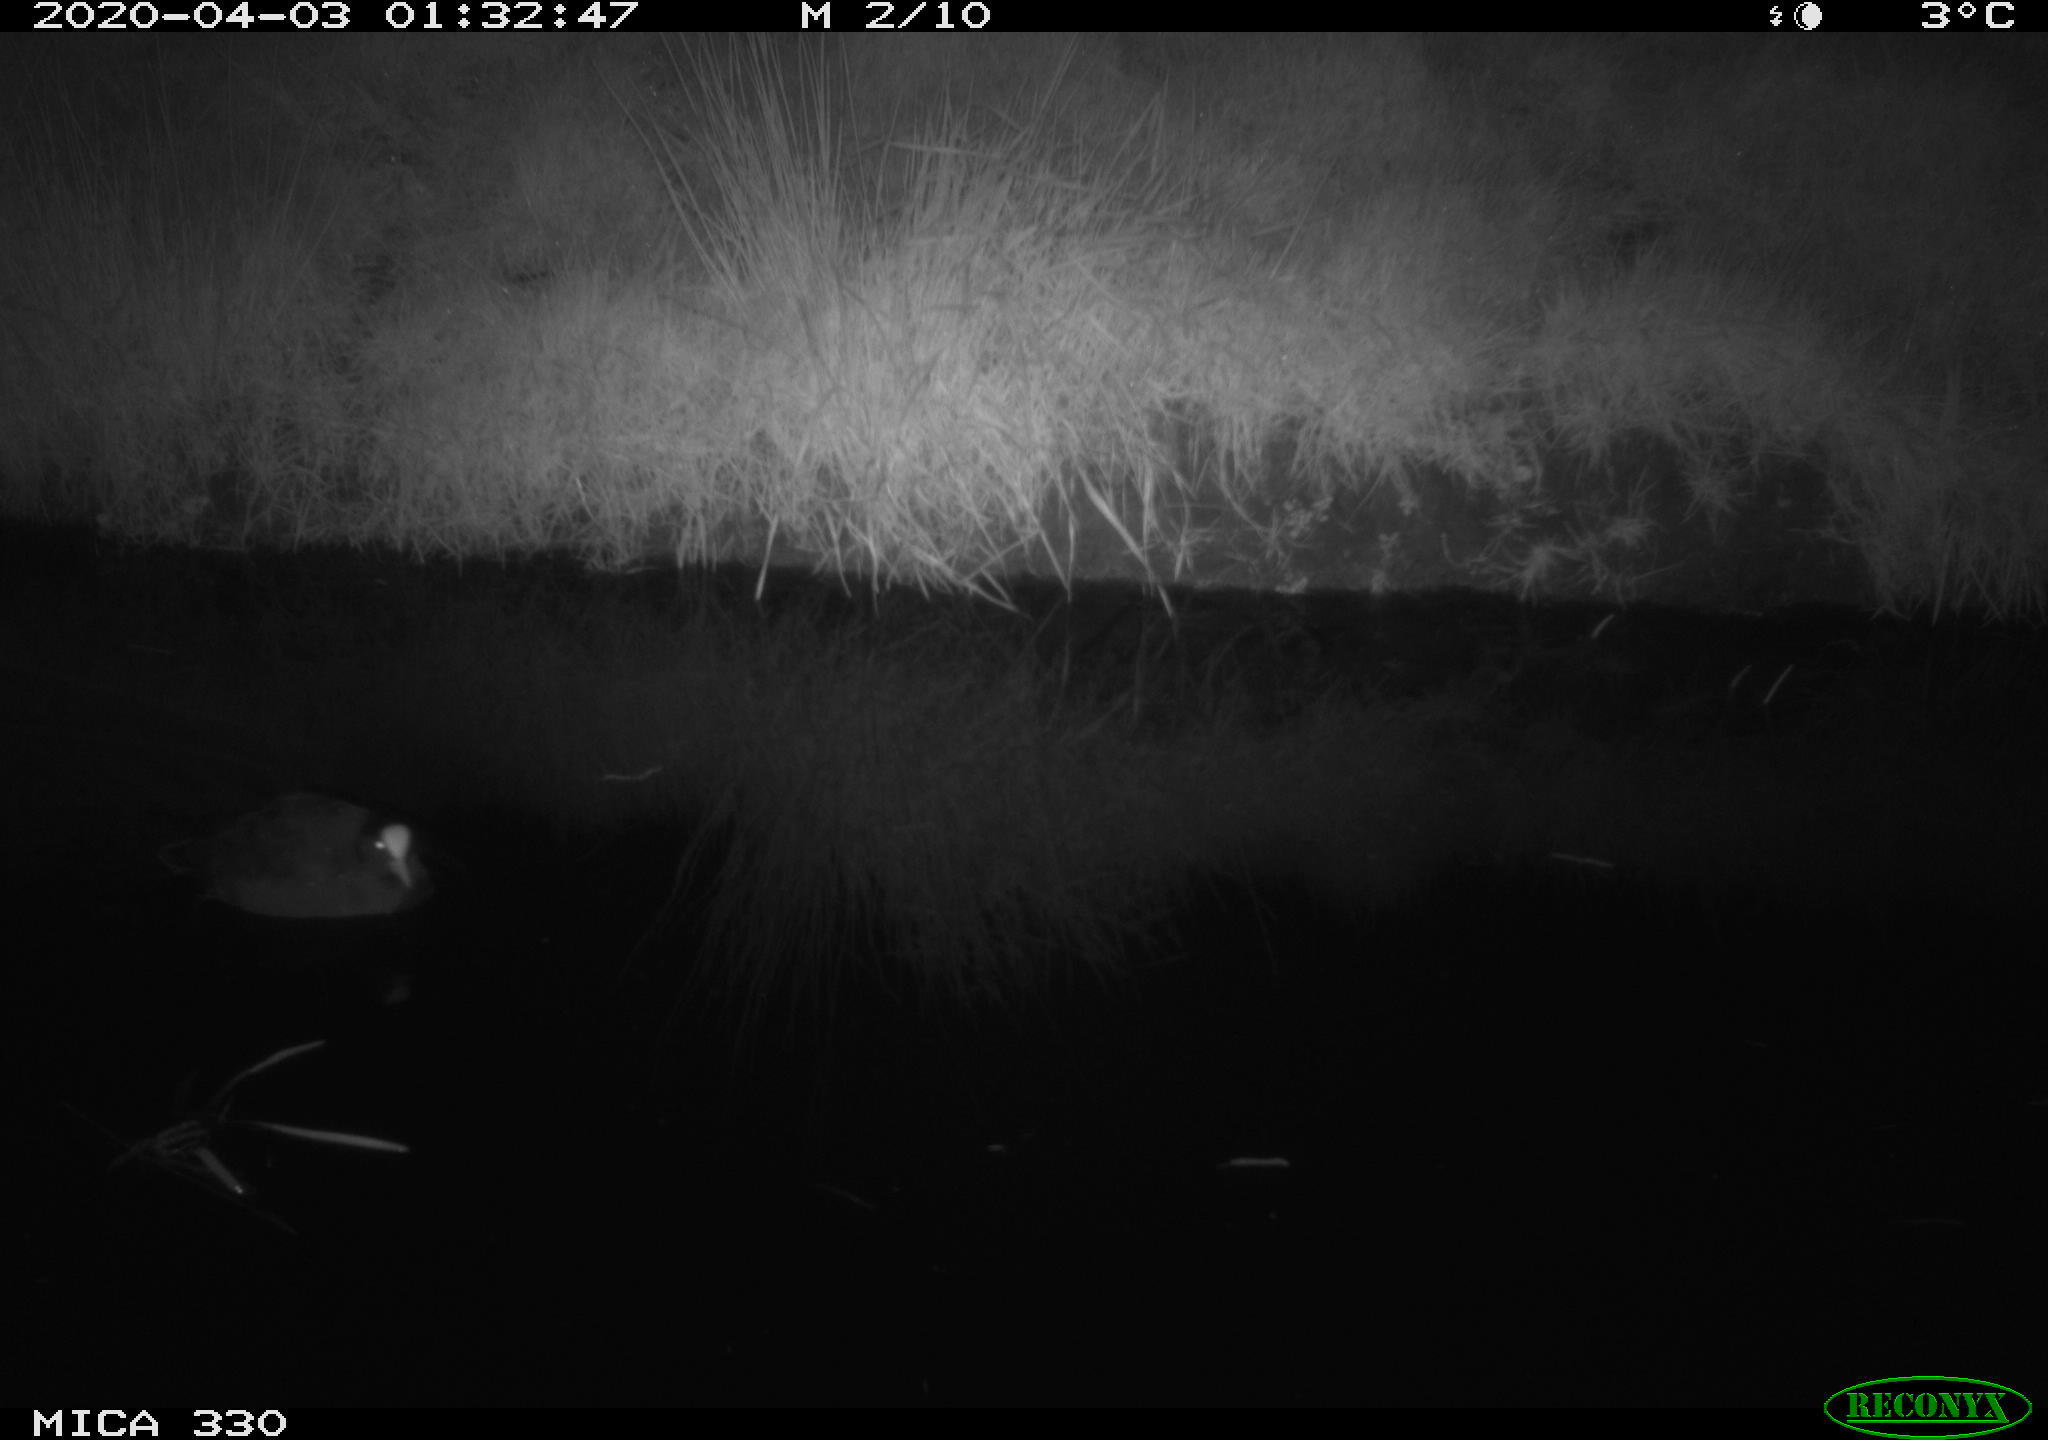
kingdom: Animalia
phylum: Chordata
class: Aves
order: Gruiformes
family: Rallidae
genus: Fulica
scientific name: Fulica atra
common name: Eurasian coot
